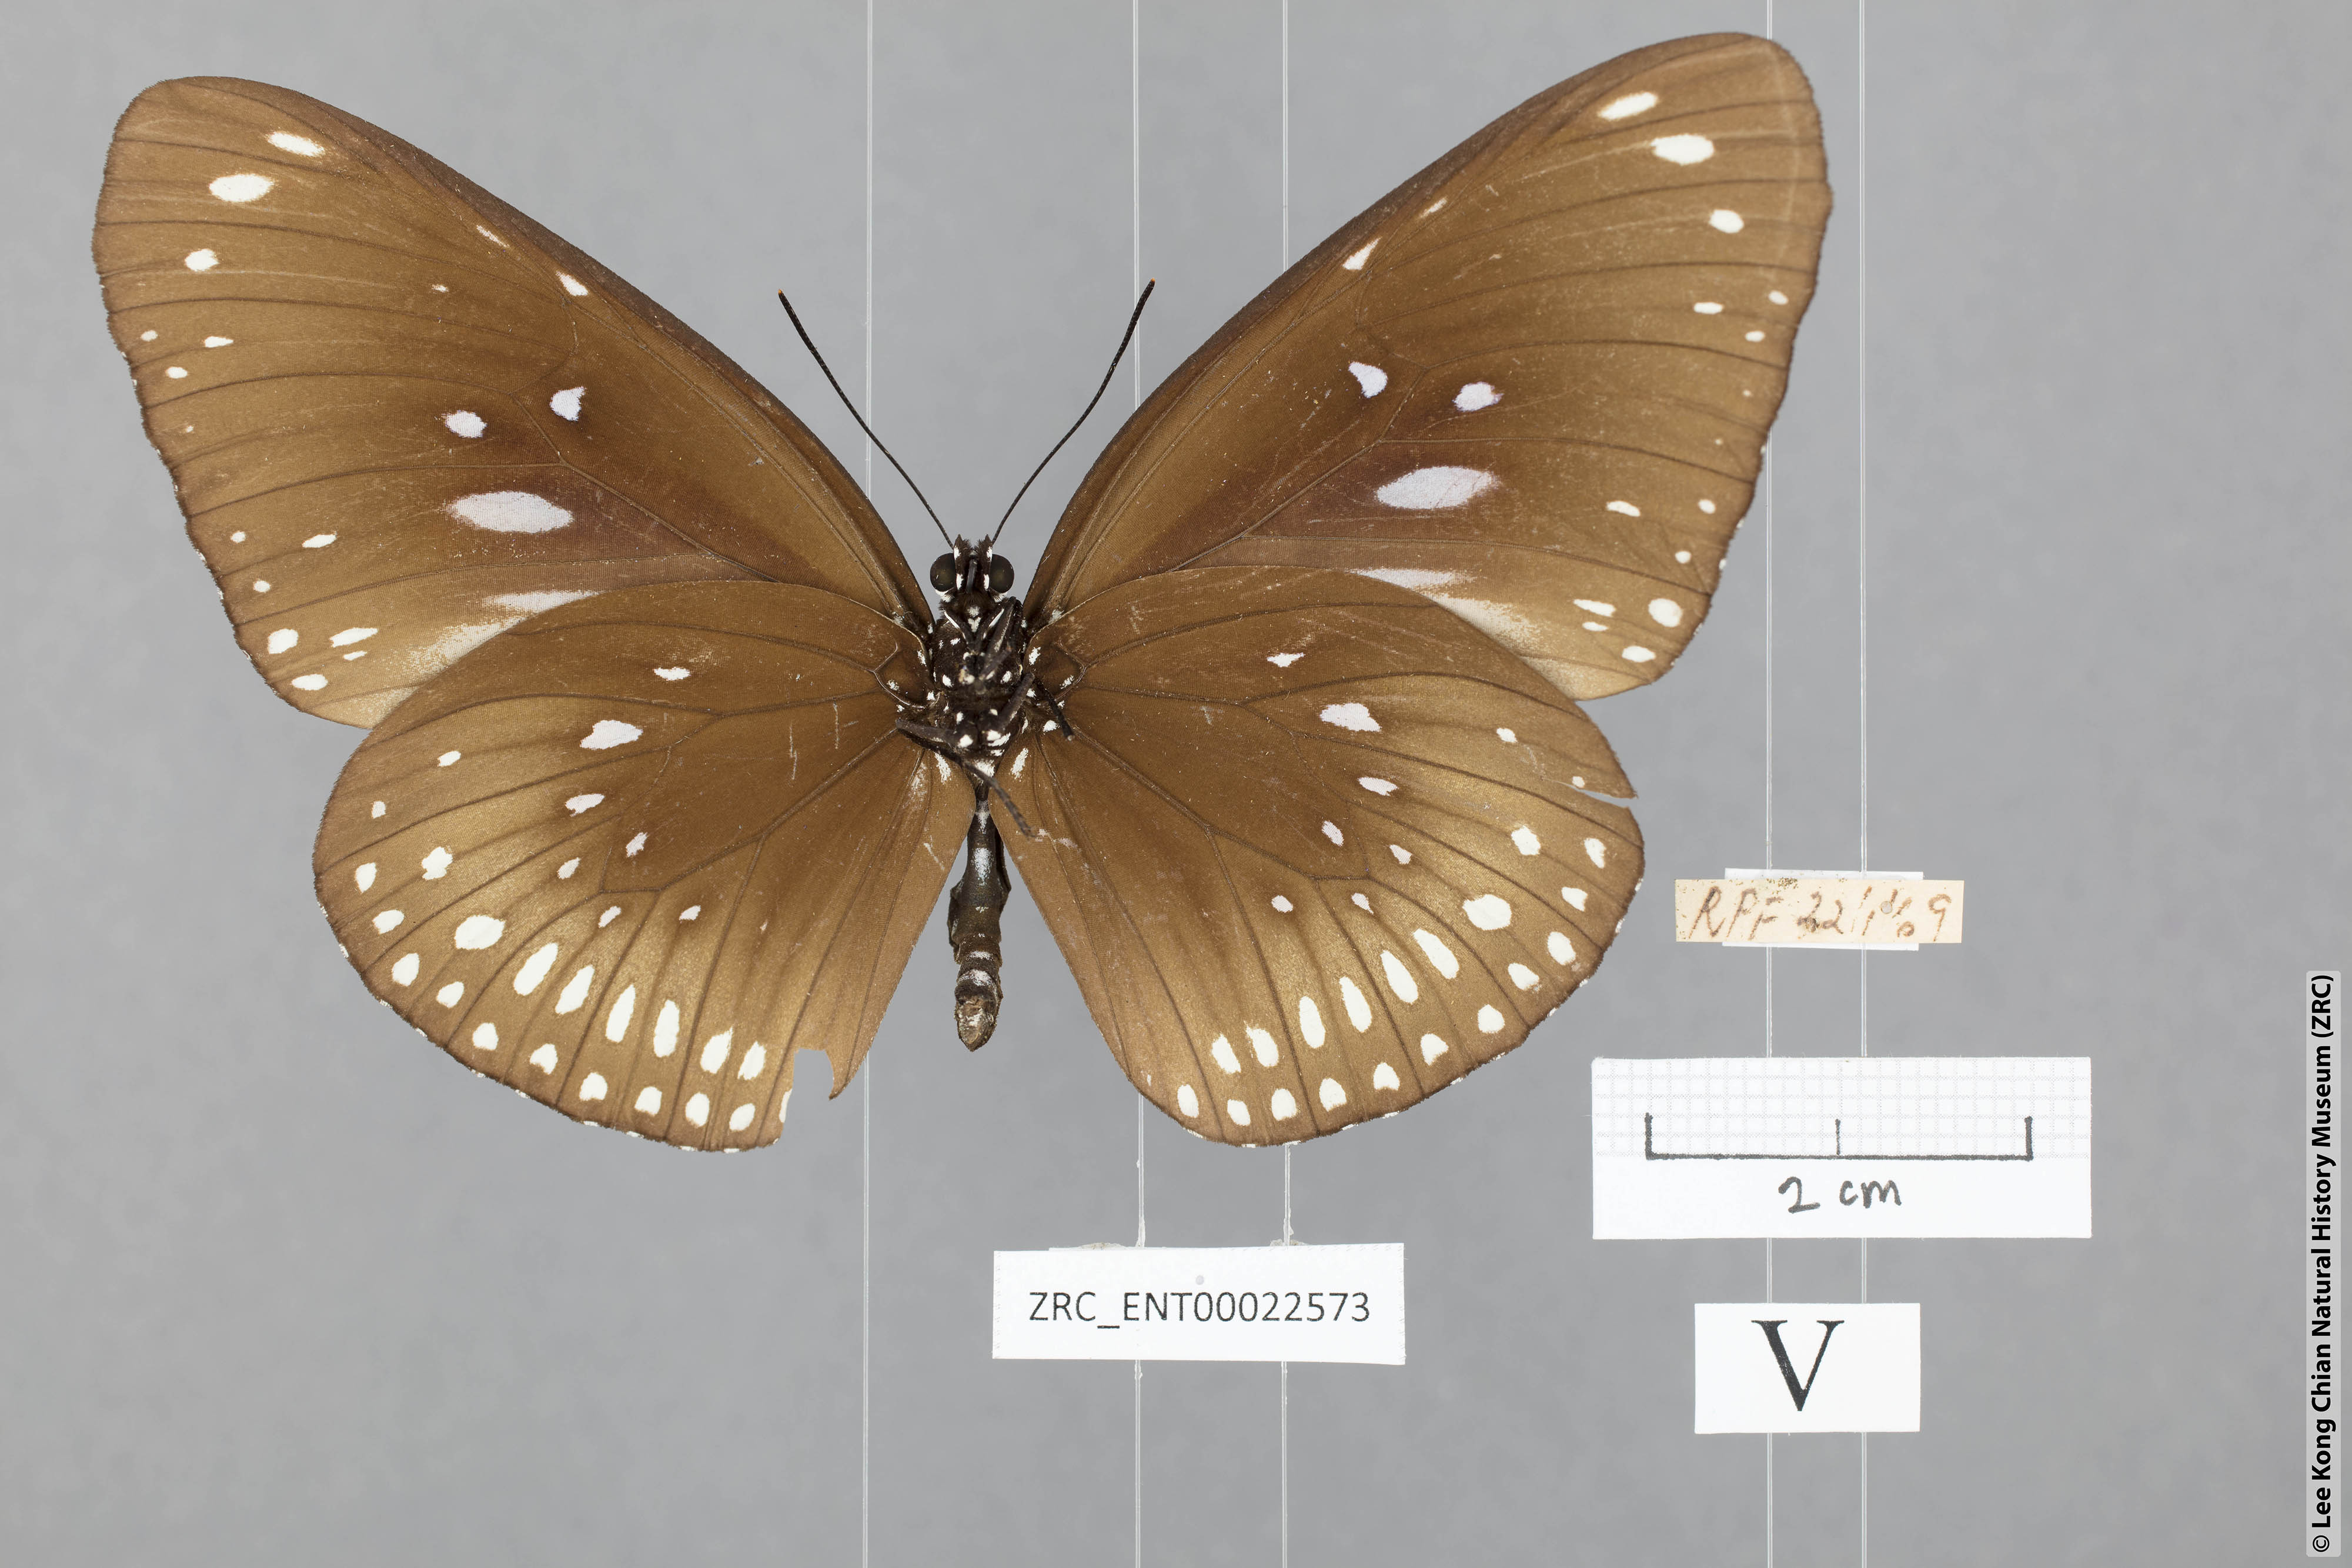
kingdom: Animalia
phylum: Arthropoda
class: Insecta
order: Lepidoptera
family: Nymphalidae
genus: Euploea
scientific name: Euploea midamus
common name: Blue-spotted crow butterfly
